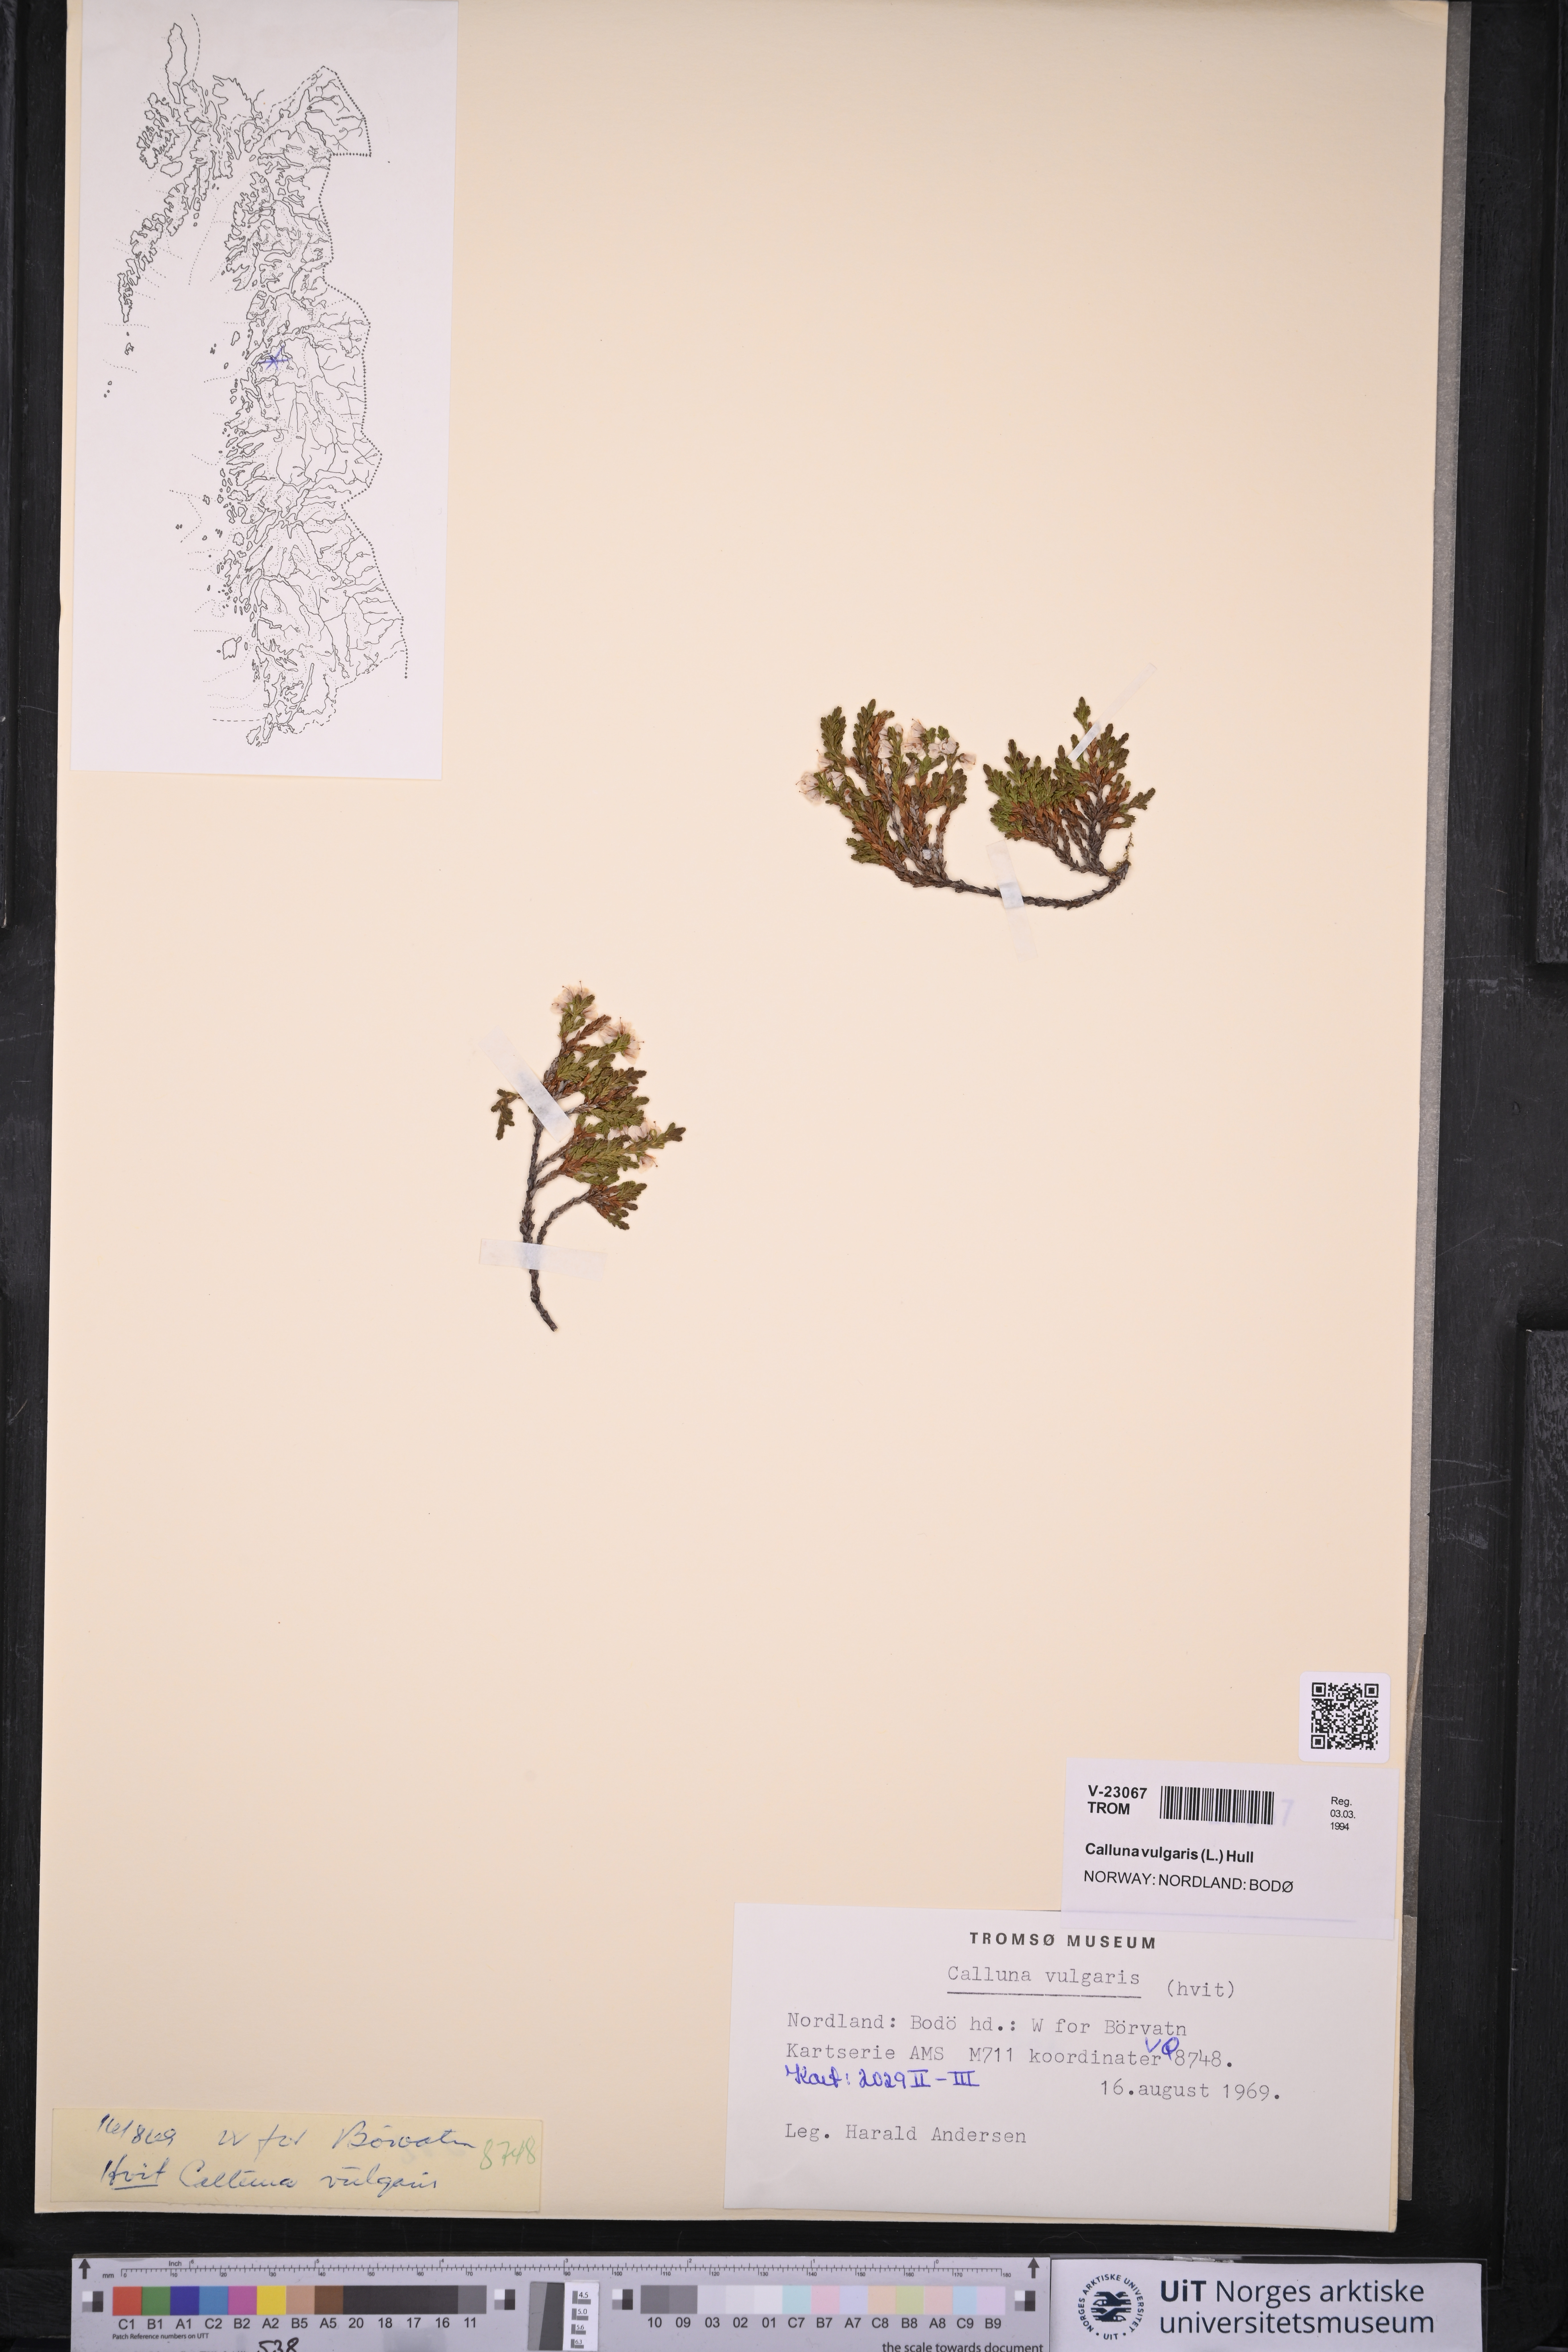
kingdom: Plantae
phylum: Tracheophyta
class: Magnoliopsida
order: Ericales
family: Ericaceae
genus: Calluna
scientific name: Calluna vulgaris
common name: Heather
